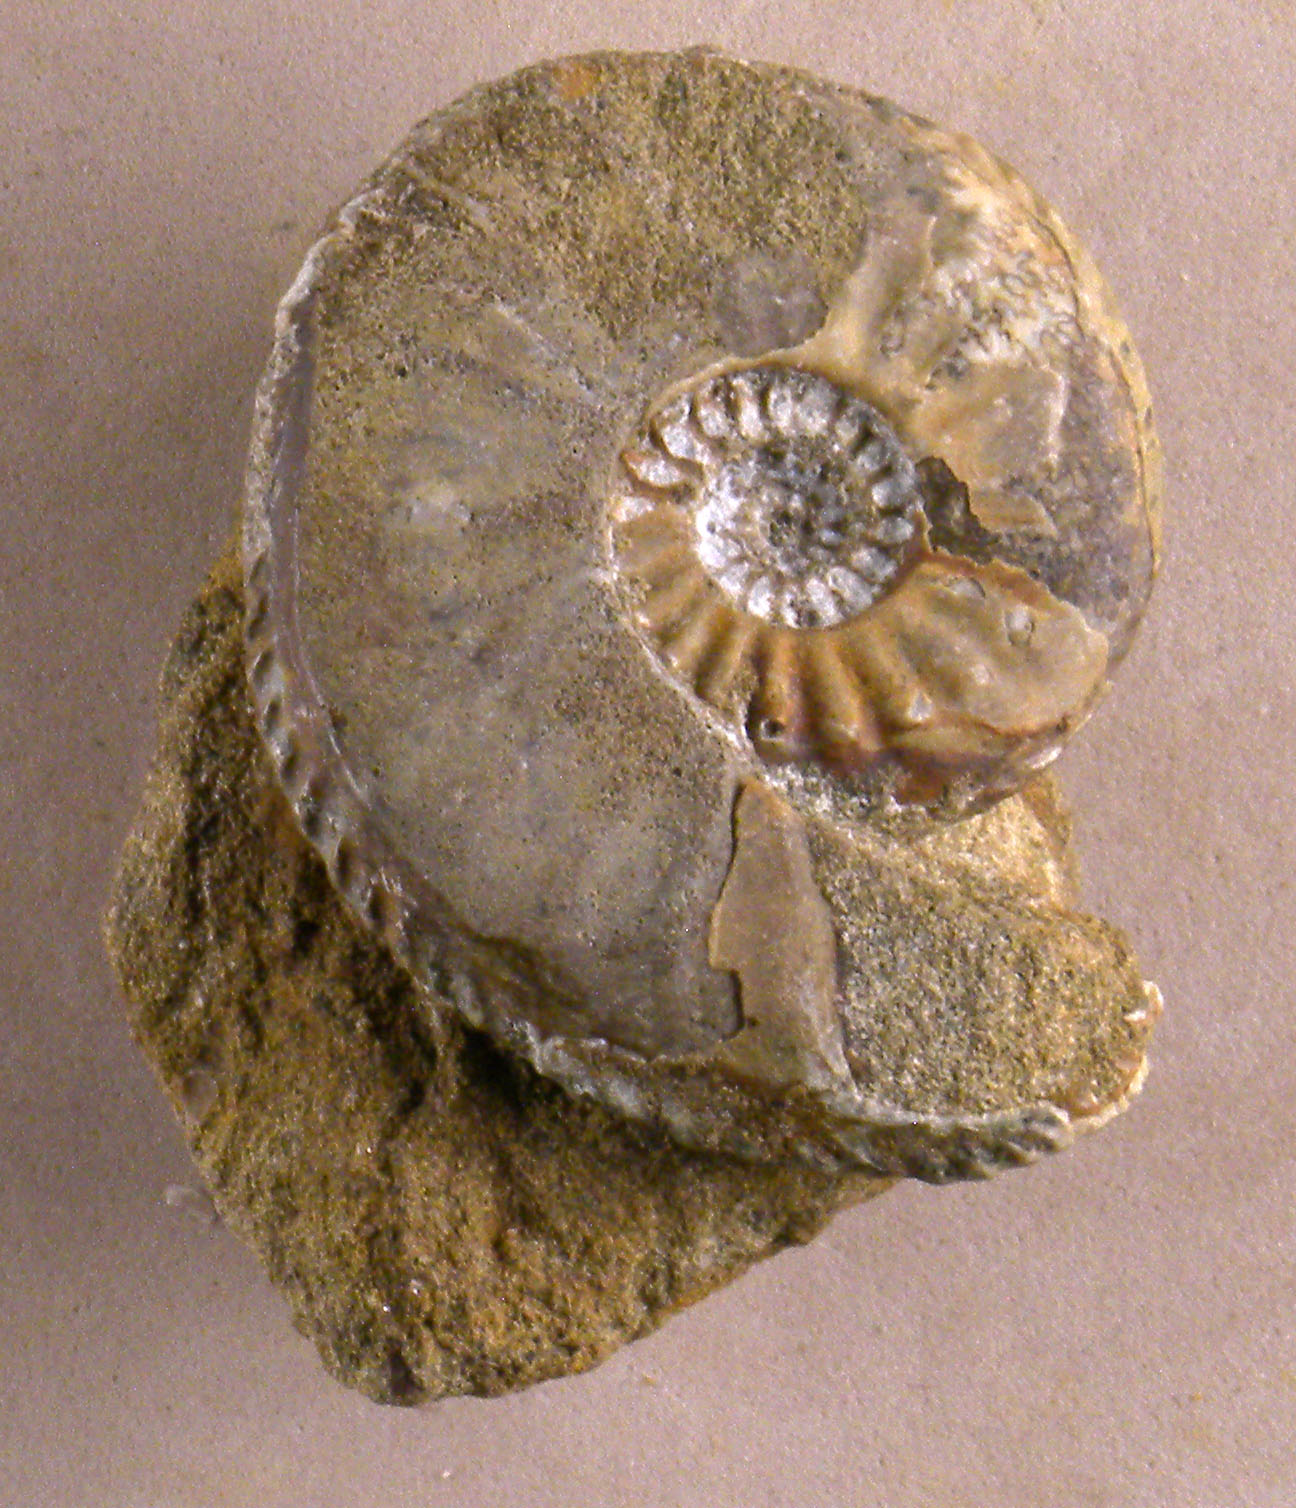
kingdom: Animalia
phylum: Mollusca
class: Cephalopoda
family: Amaltheidae
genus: Amaltheus
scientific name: Amaltheus
